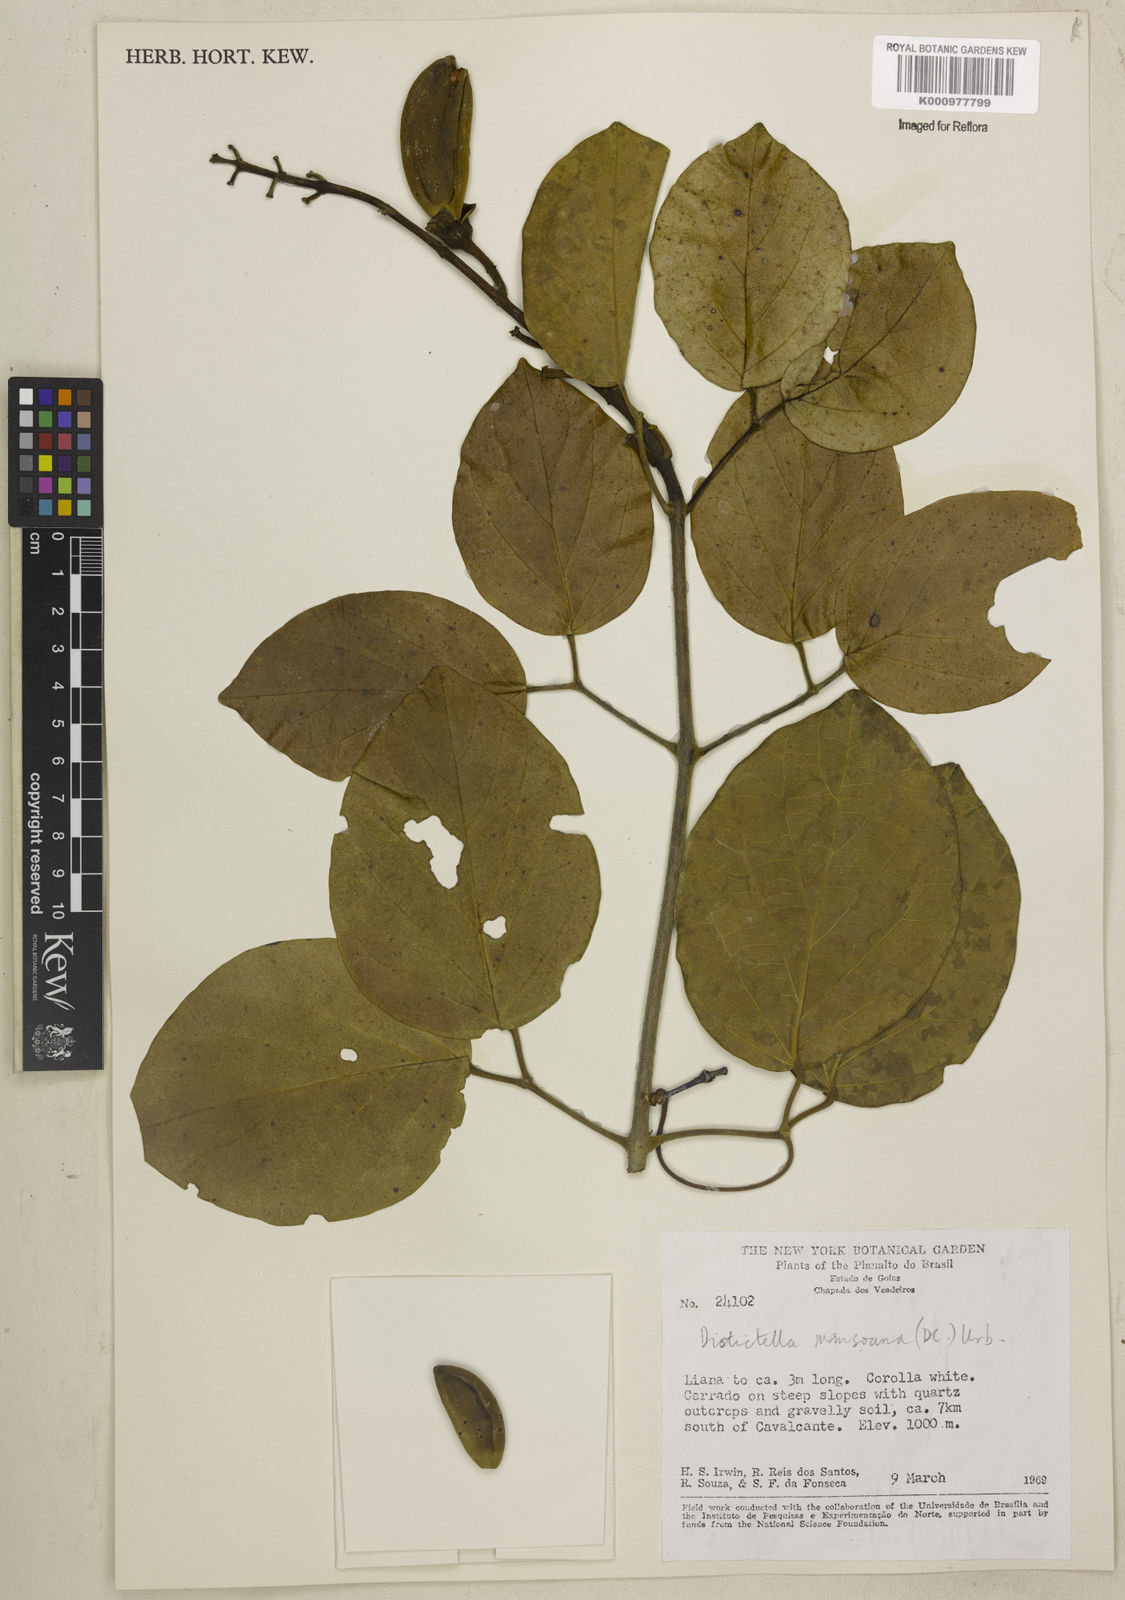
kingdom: Plantae
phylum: Tracheophyta
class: Magnoliopsida
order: Lamiales
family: Bignoniaceae
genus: Amphilophium
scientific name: Amphilophium mansoanum
